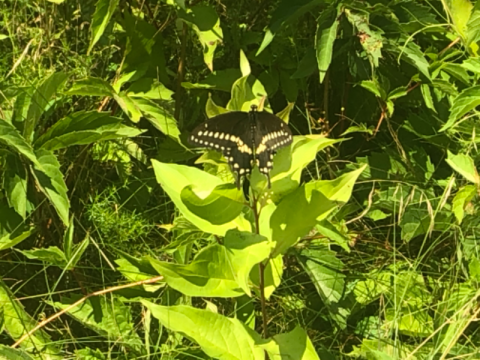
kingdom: Animalia
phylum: Arthropoda
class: Insecta
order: Lepidoptera
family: Papilionidae
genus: Papilio
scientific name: Papilio polyxenes
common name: Black Swallowtail
